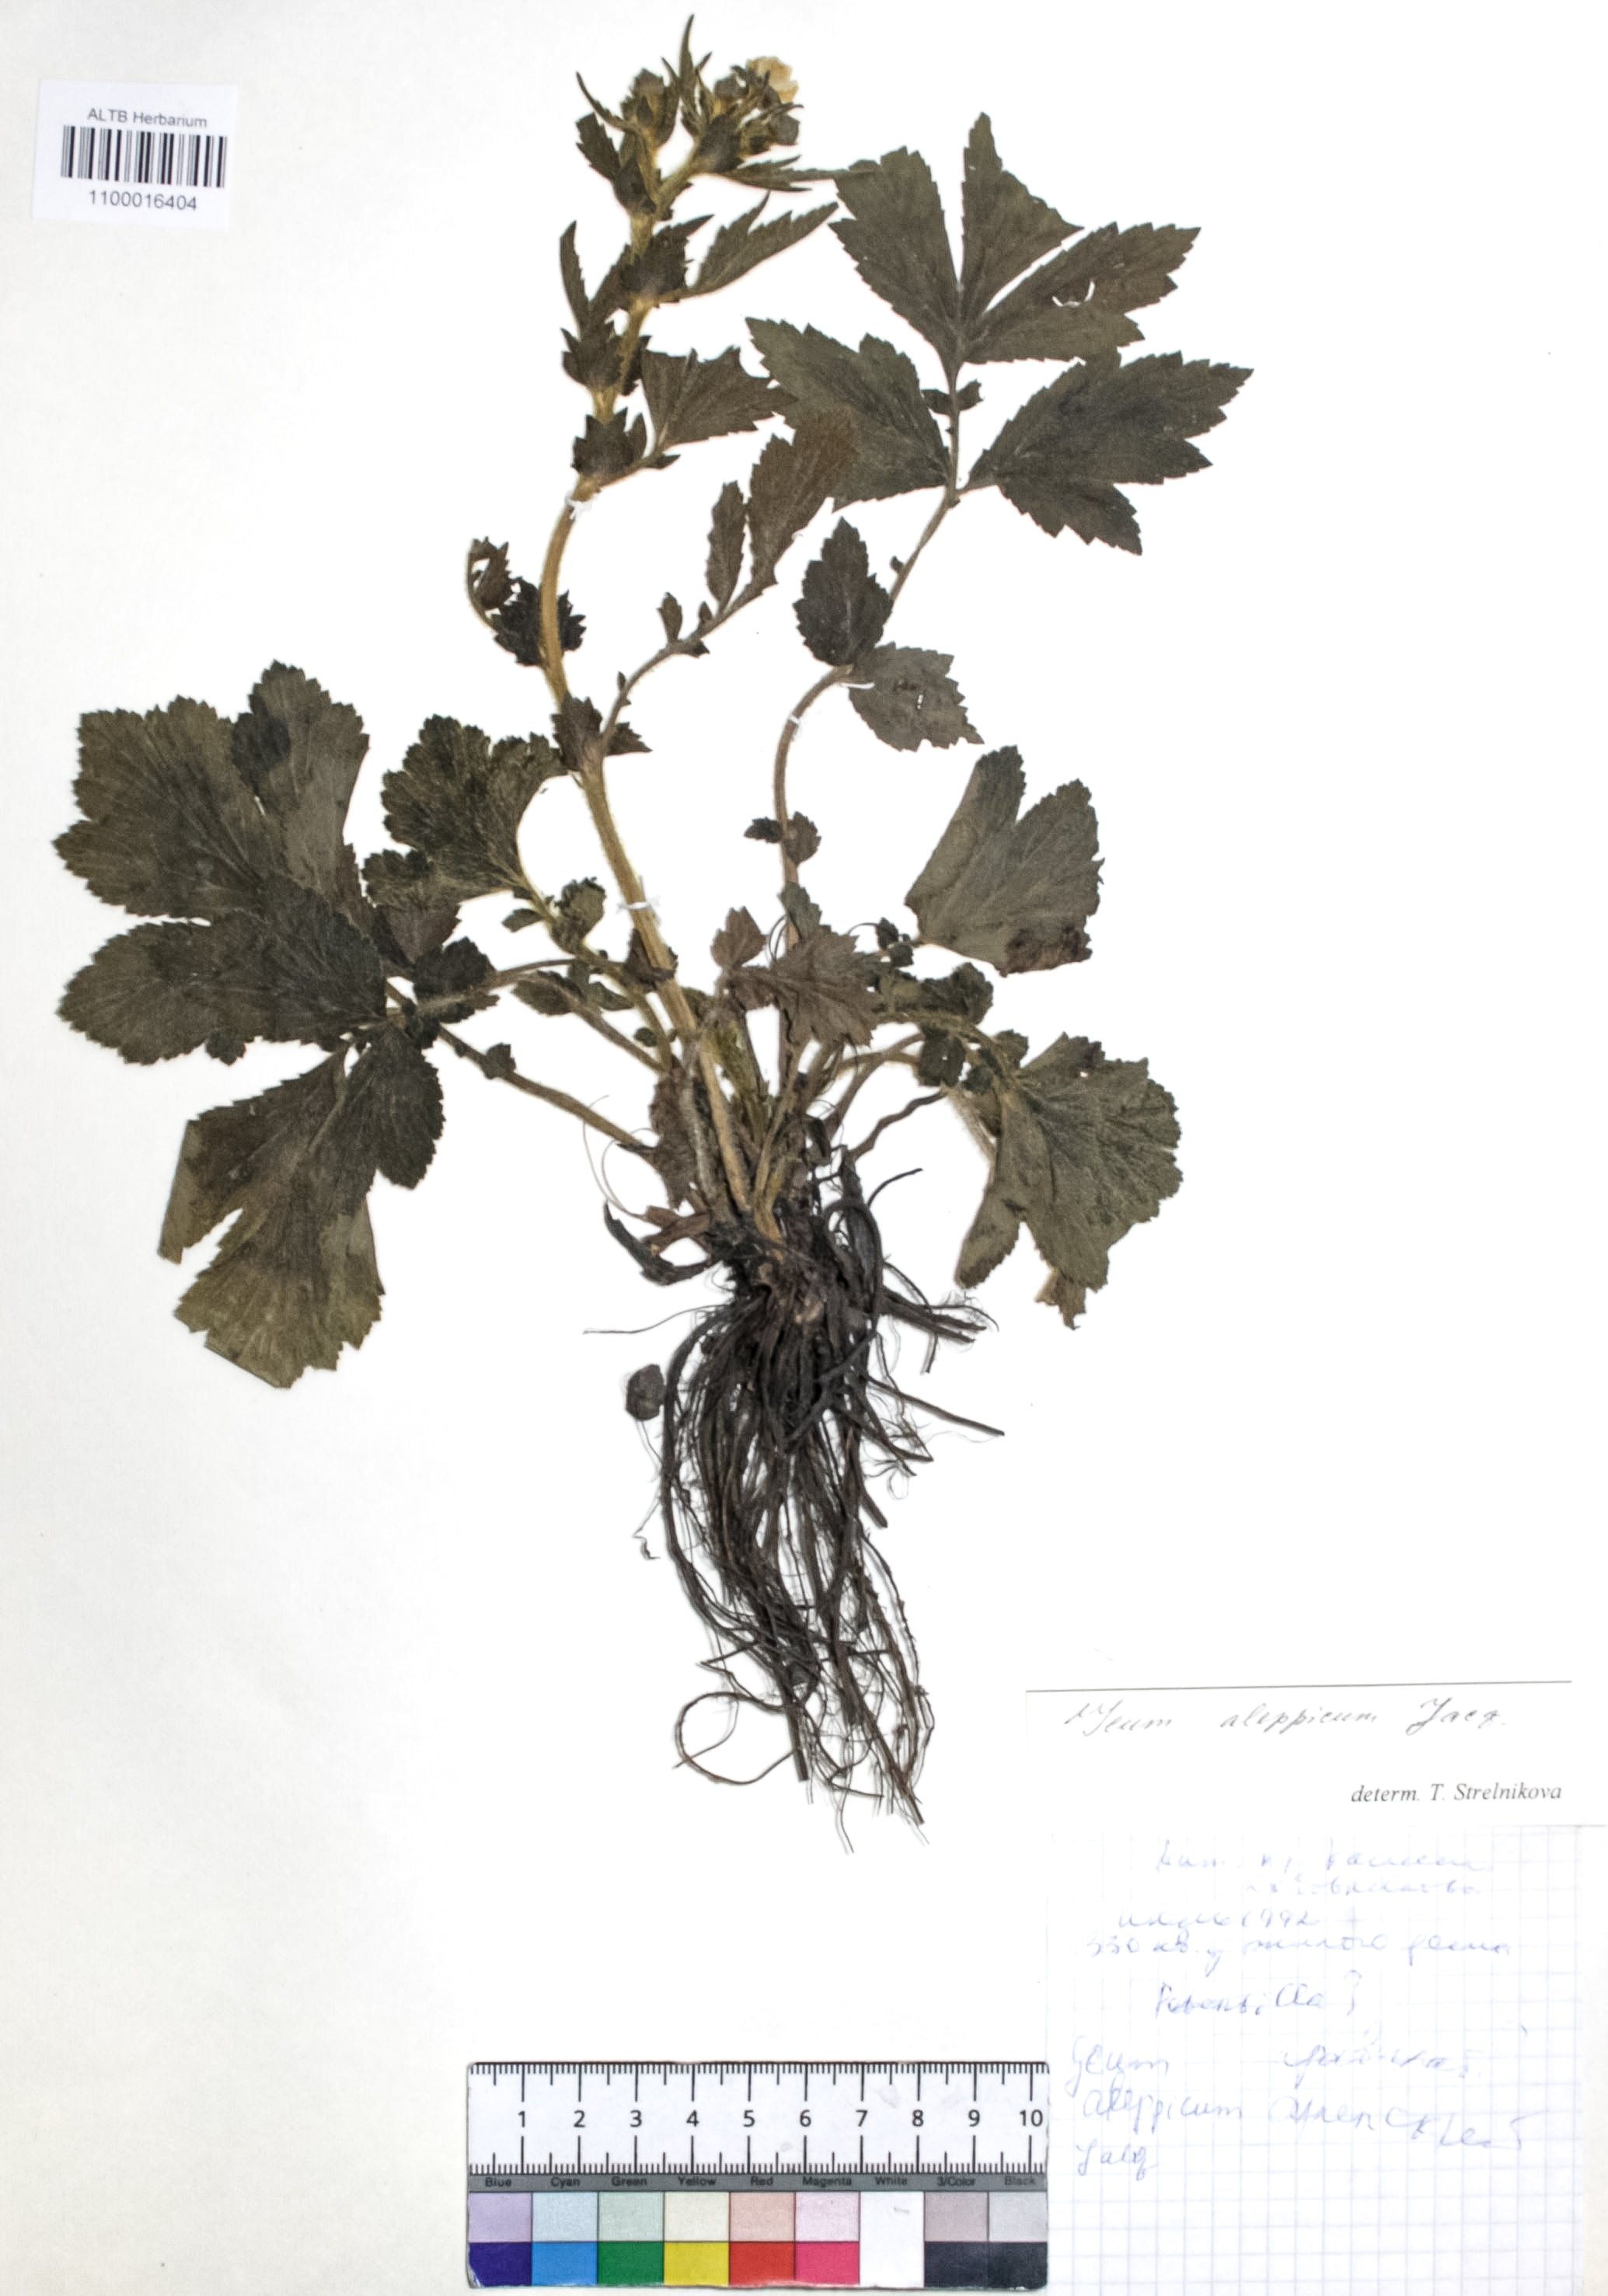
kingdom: Plantae
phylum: Tracheophyta
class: Magnoliopsida
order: Rosales
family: Rosaceae
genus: Geum
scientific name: Geum aleppicum
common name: Yellow avens
